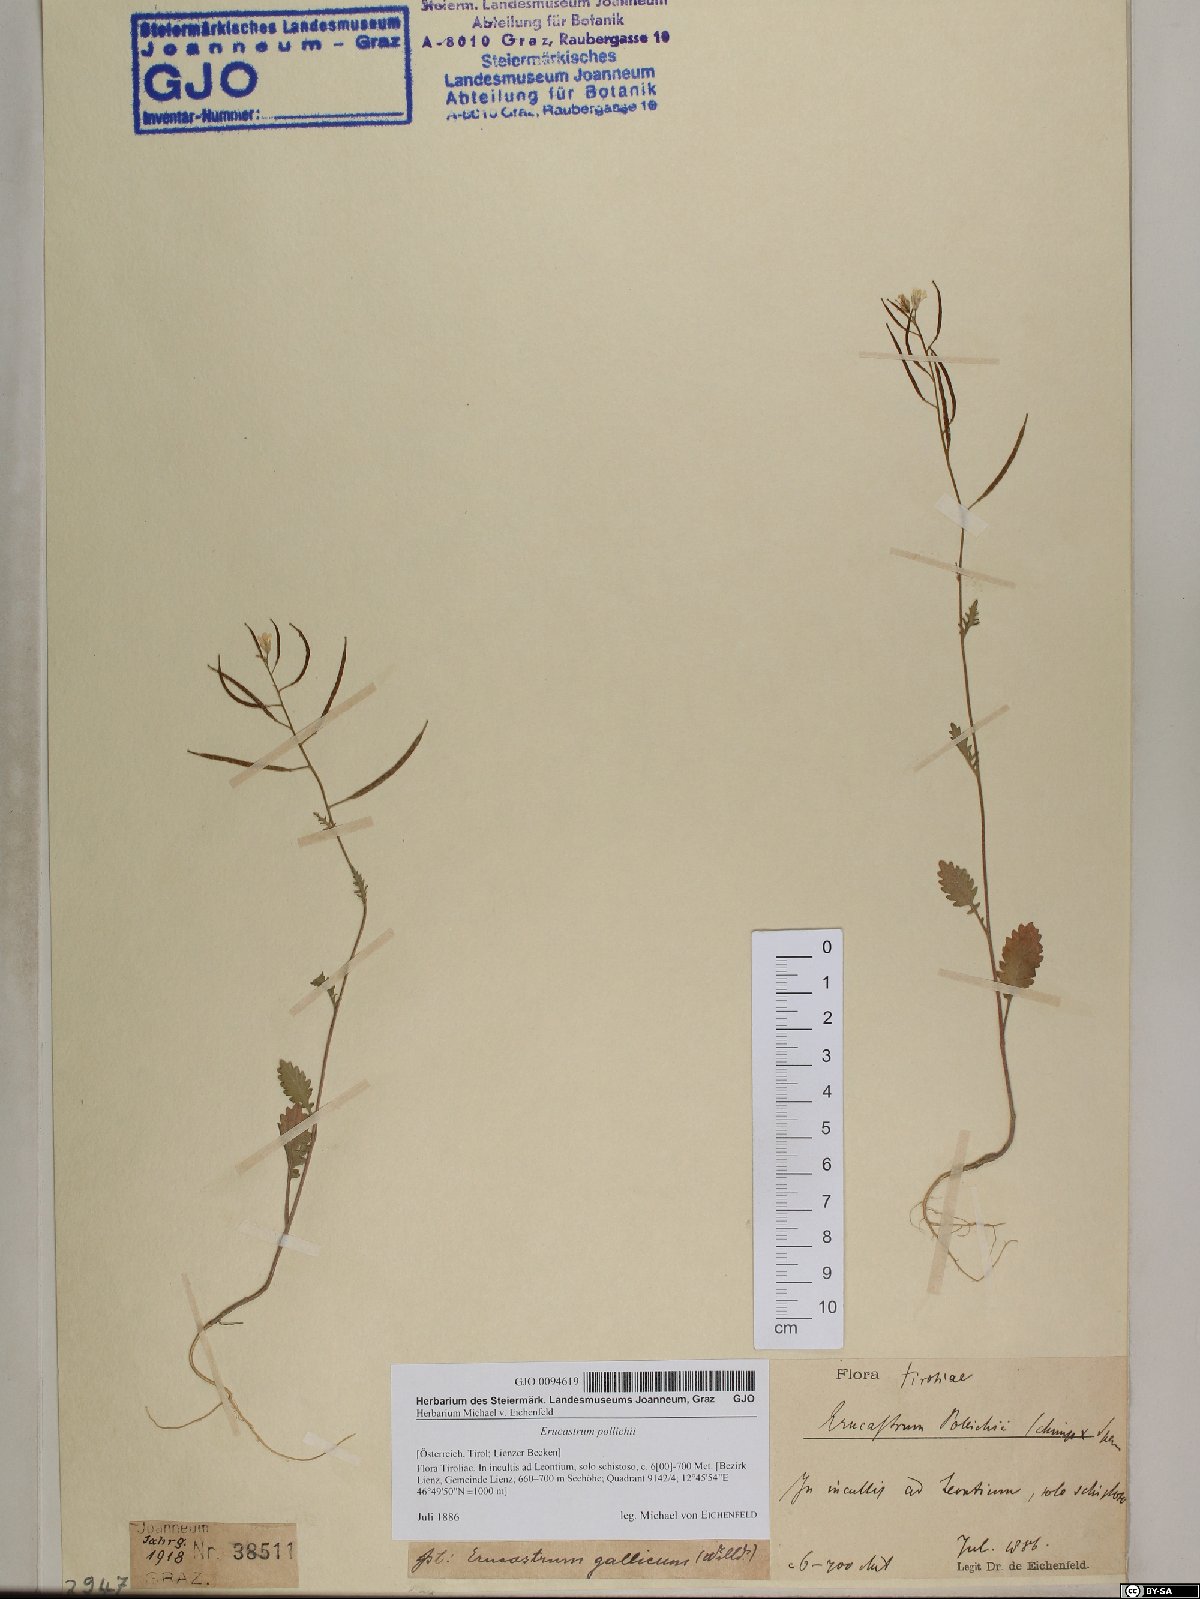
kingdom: Plantae
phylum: Tracheophyta
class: Magnoliopsida
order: Brassicales
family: Brassicaceae
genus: Erucastrum
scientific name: Erucastrum gallicum
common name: Hairy rocket
